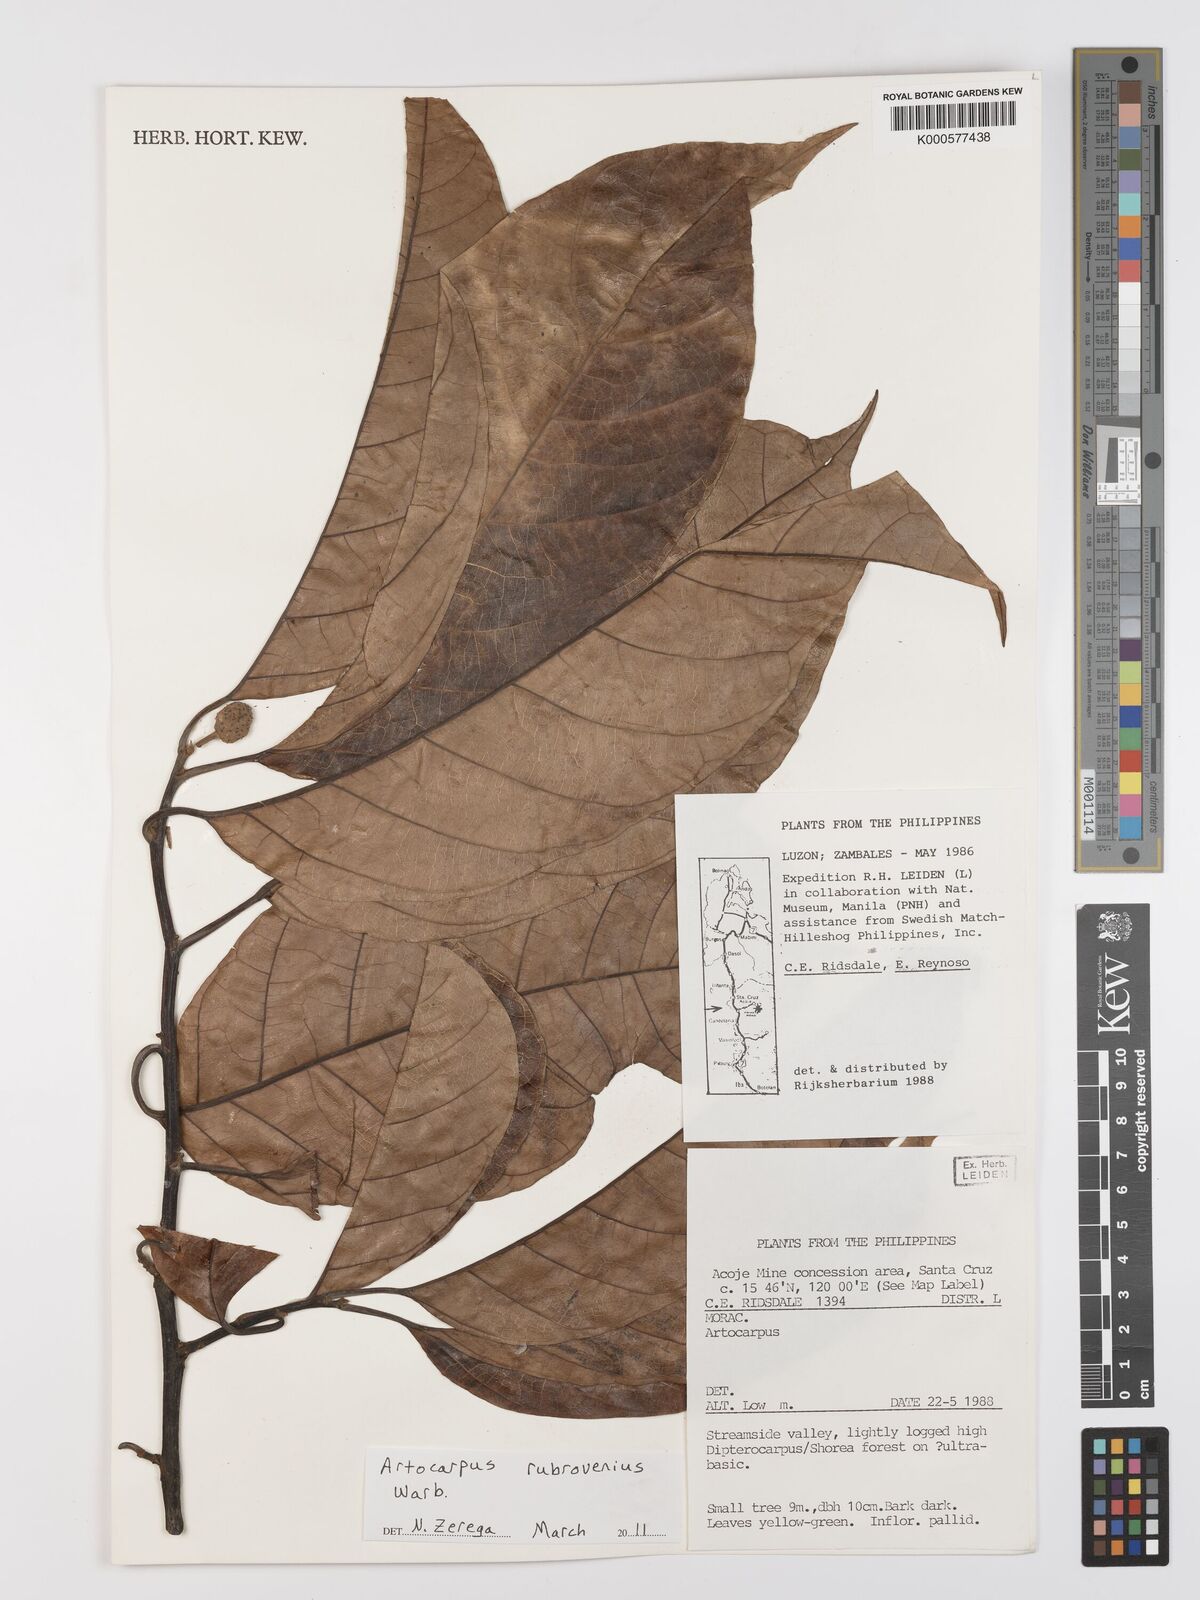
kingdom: Plantae
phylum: Tracheophyta
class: Magnoliopsida
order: Rosales
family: Moraceae
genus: Artocarpus
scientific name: Artocarpus rubrovenius
